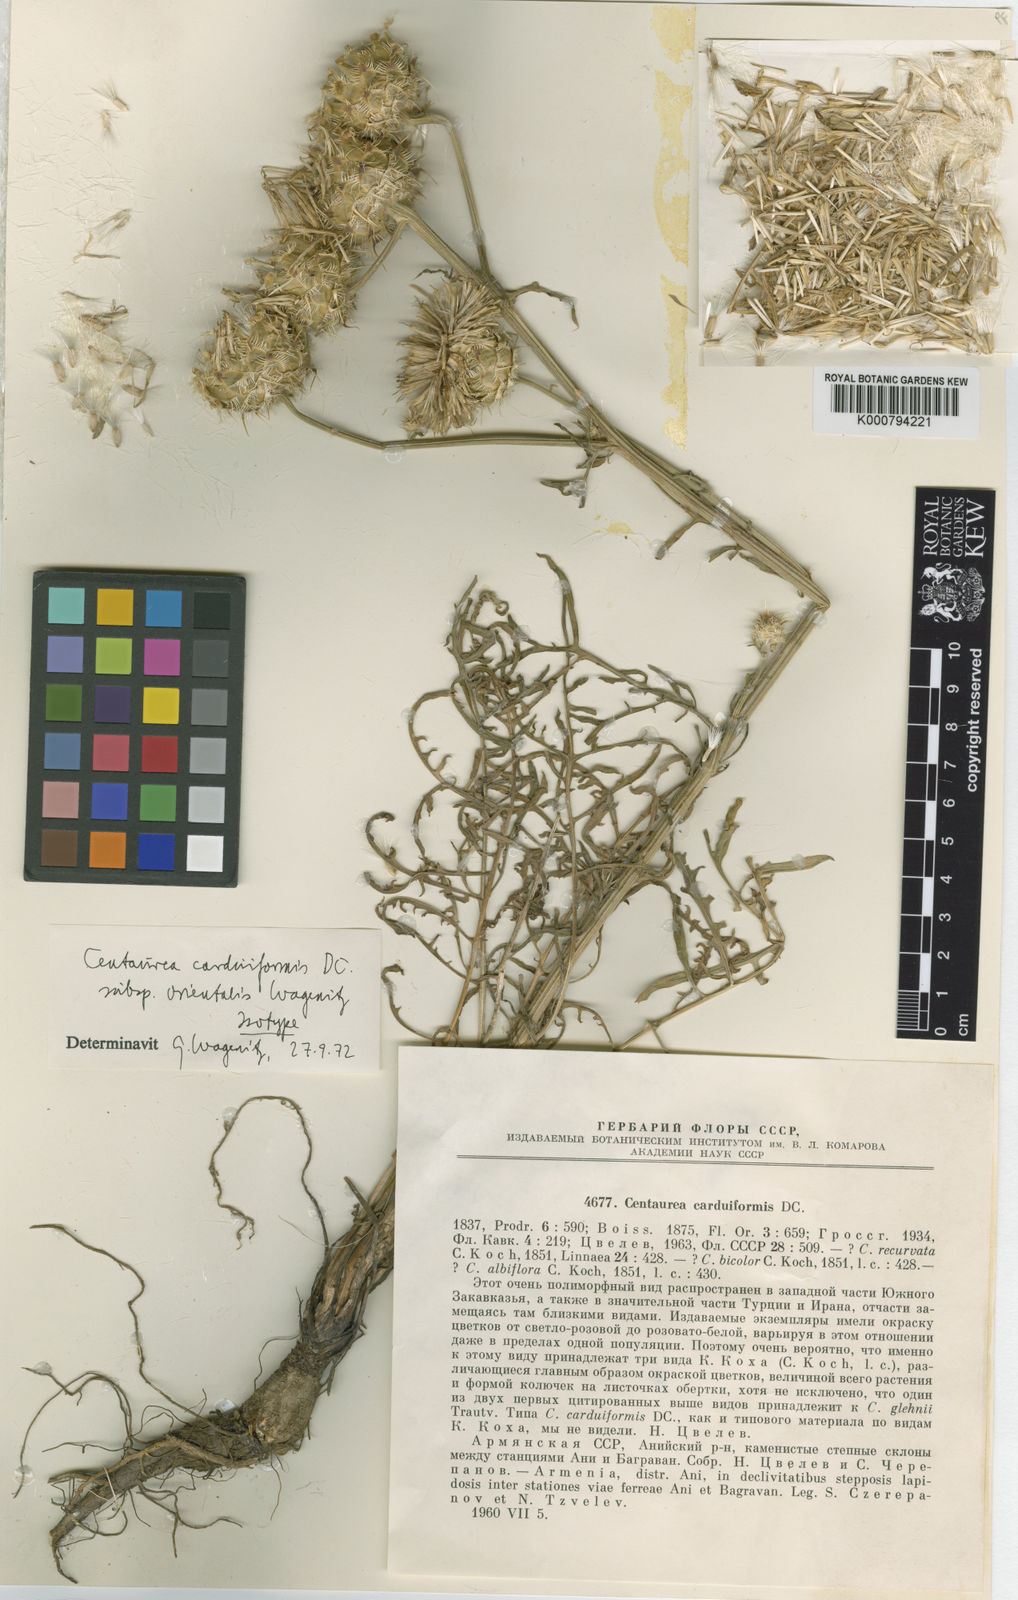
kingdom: Plantae
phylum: Tracheophyta
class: Magnoliopsida
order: Asterales
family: Asteraceae
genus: Centaurea
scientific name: Centaurea carduiformis
